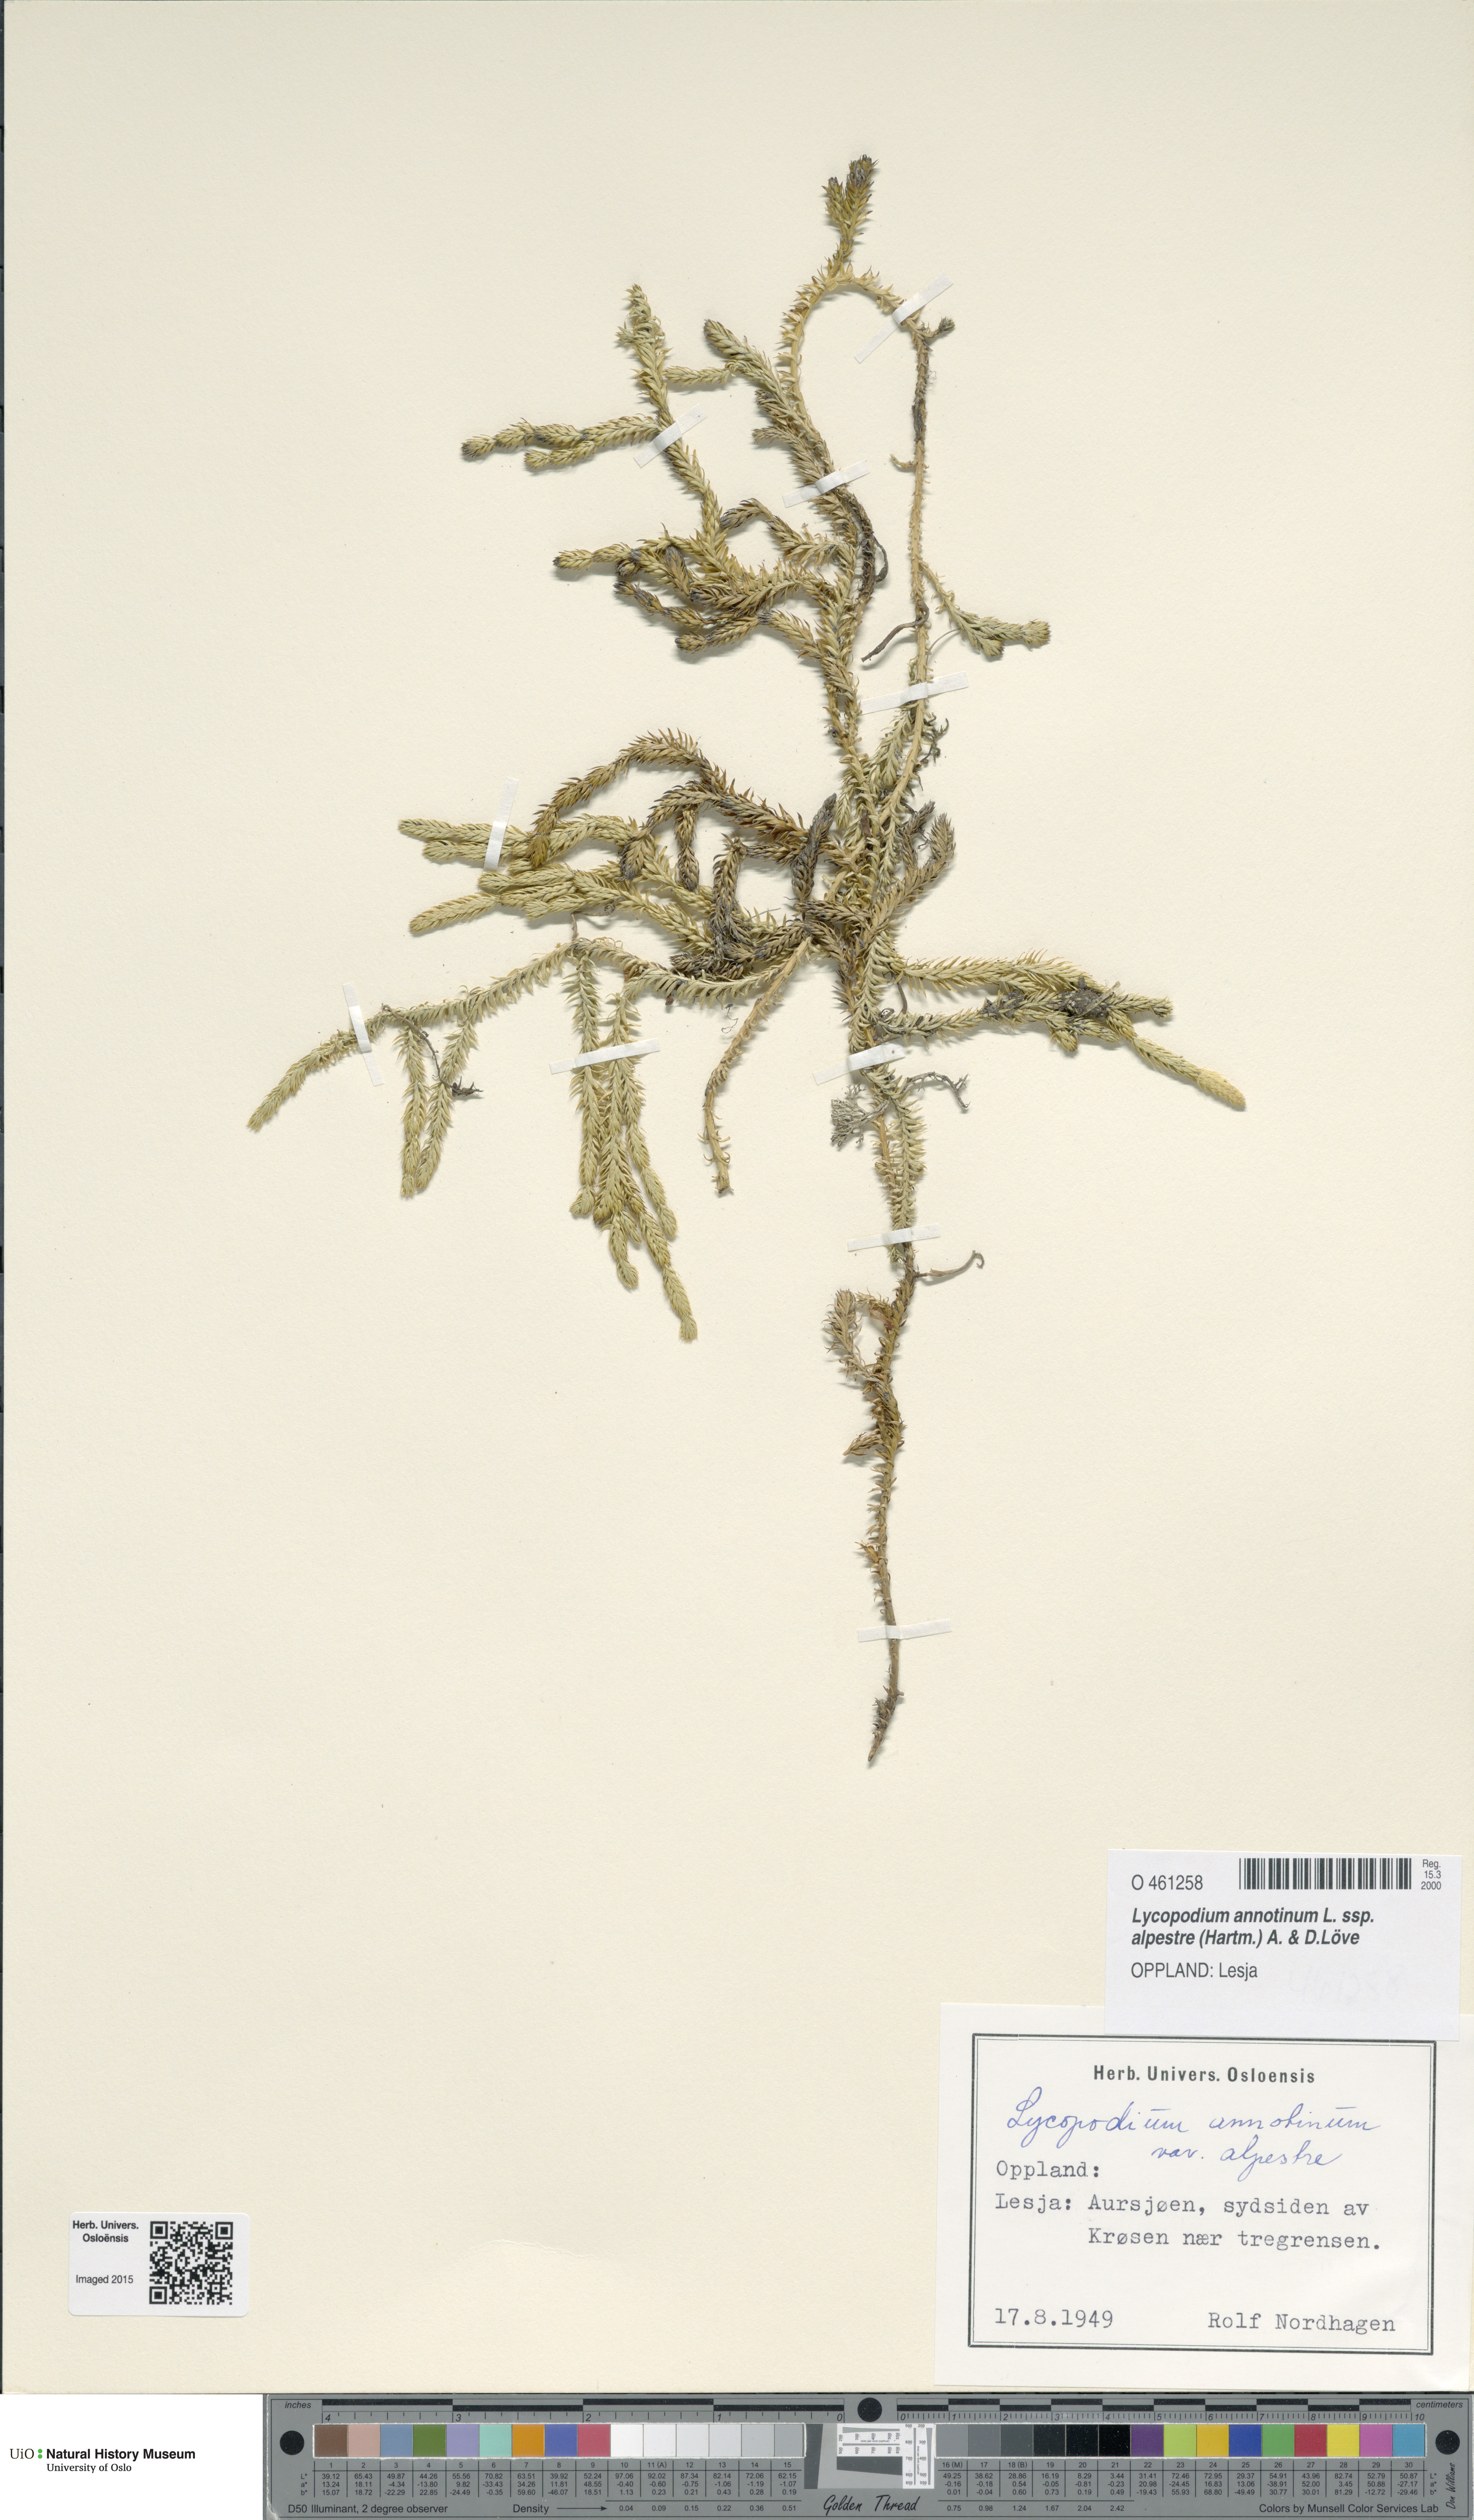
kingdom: Plantae
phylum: Tracheophyta
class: Lycopodiopsida
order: Lycopodiales
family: Lycopodiaceae
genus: Spinulum
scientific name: Spinulum annotinum
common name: Interrupted club-moss
